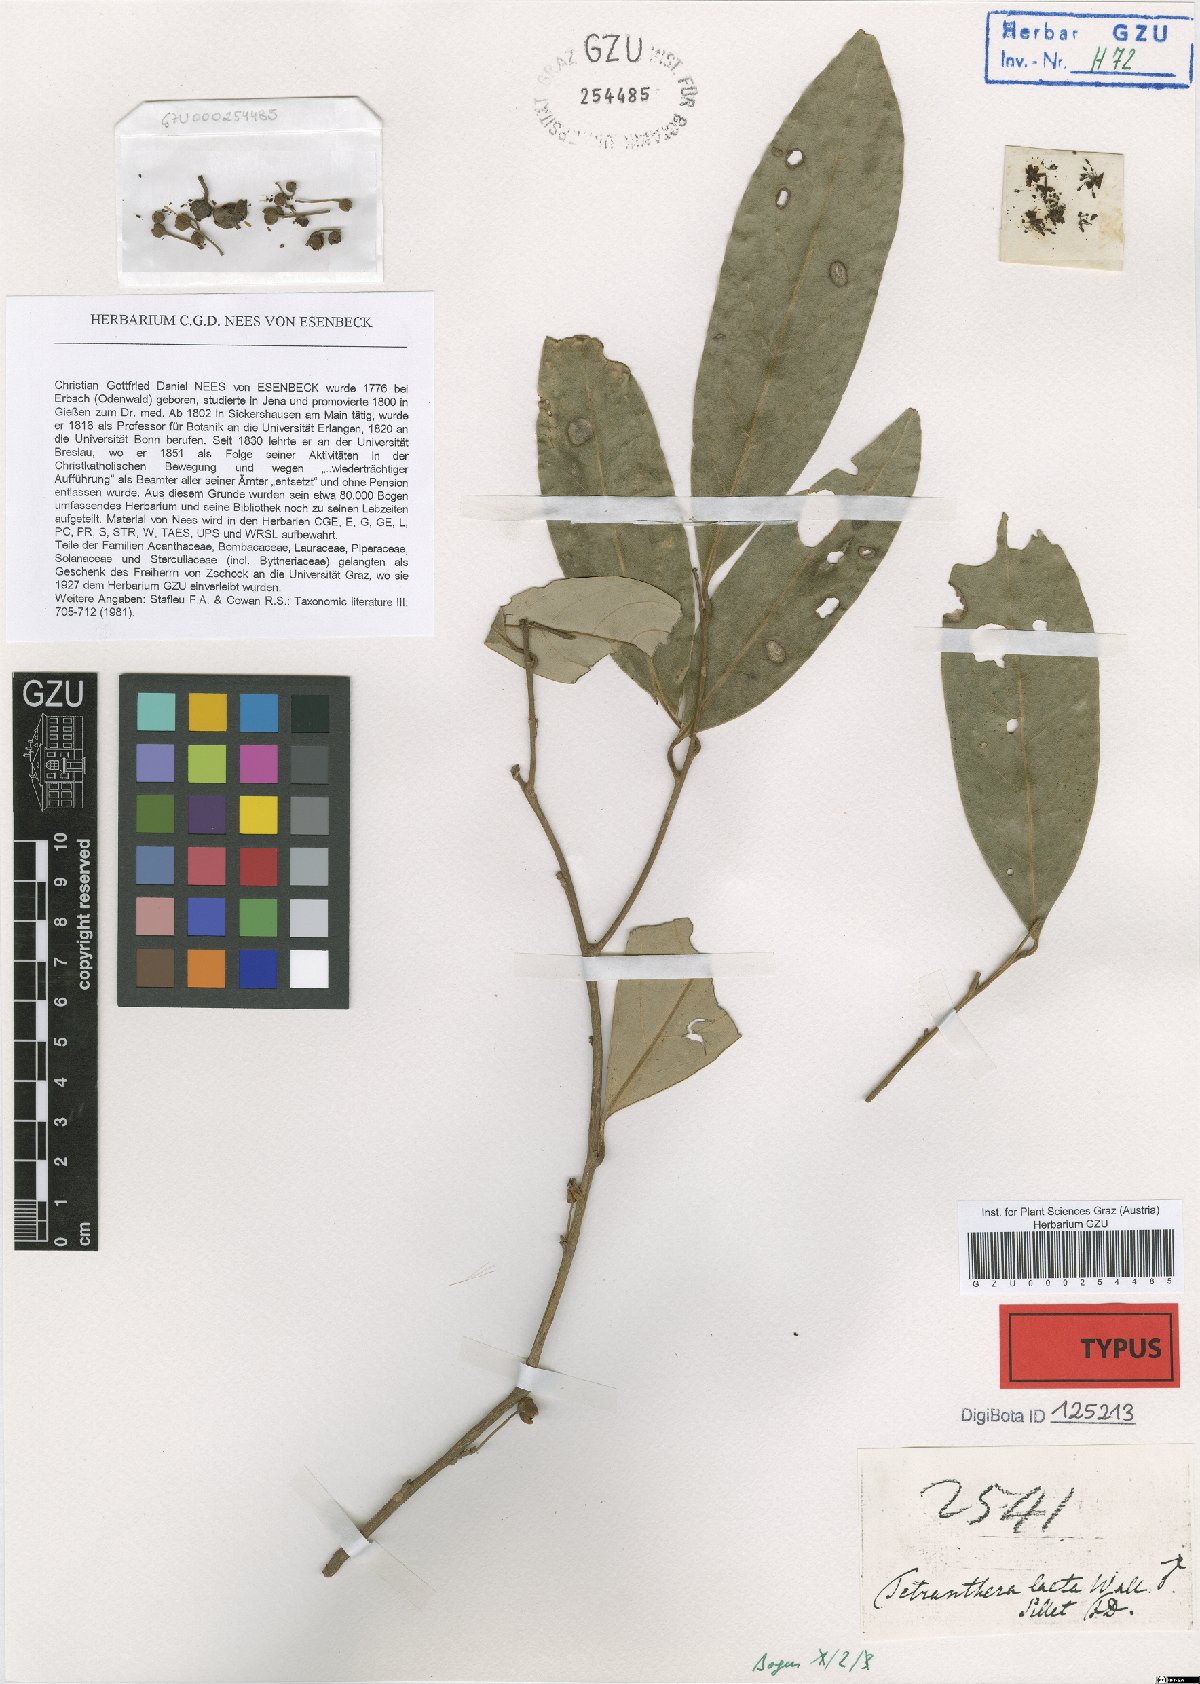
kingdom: Plantae
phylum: Tracheophyta
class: Magnoliopsida
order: Laurales
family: Lauraceae
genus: Litsea
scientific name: Litsea laeta
